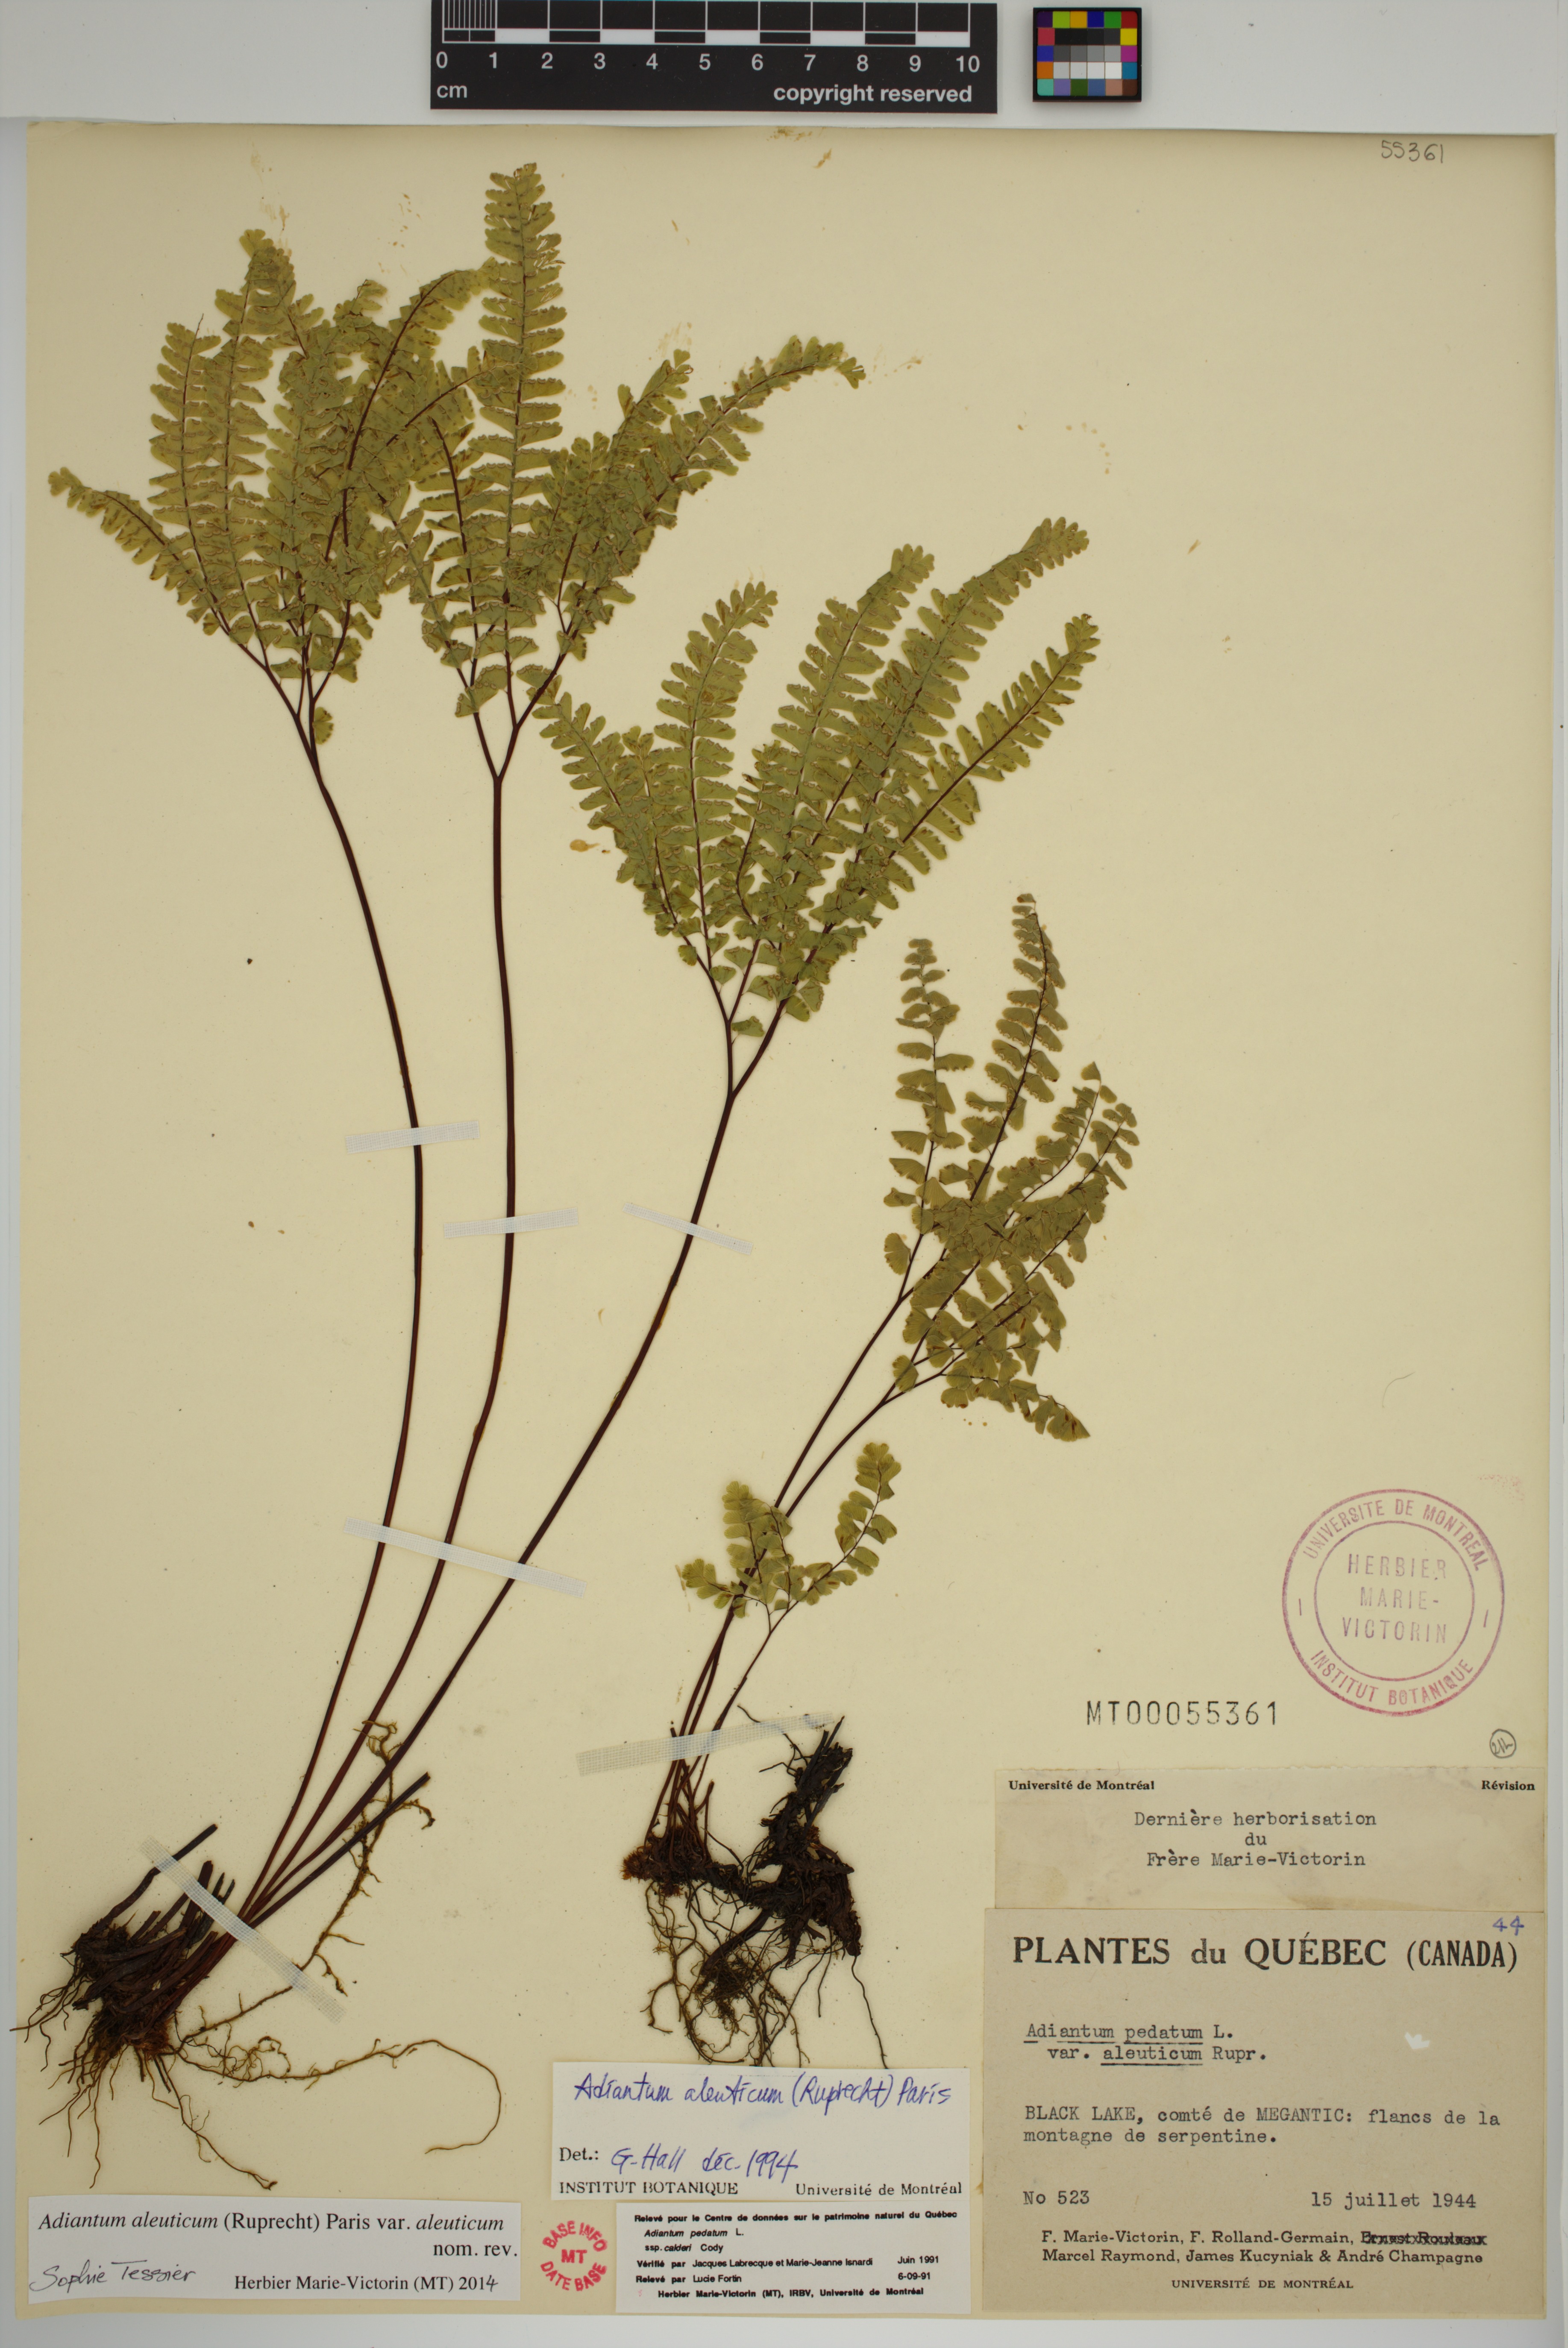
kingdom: Plantae
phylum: Tracheophyta
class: Polypodiopsida
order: Polypodiales
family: Pteridaceae
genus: Adiantum
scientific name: Adiantum aleuticum
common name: Aleutian maidenhair fern
